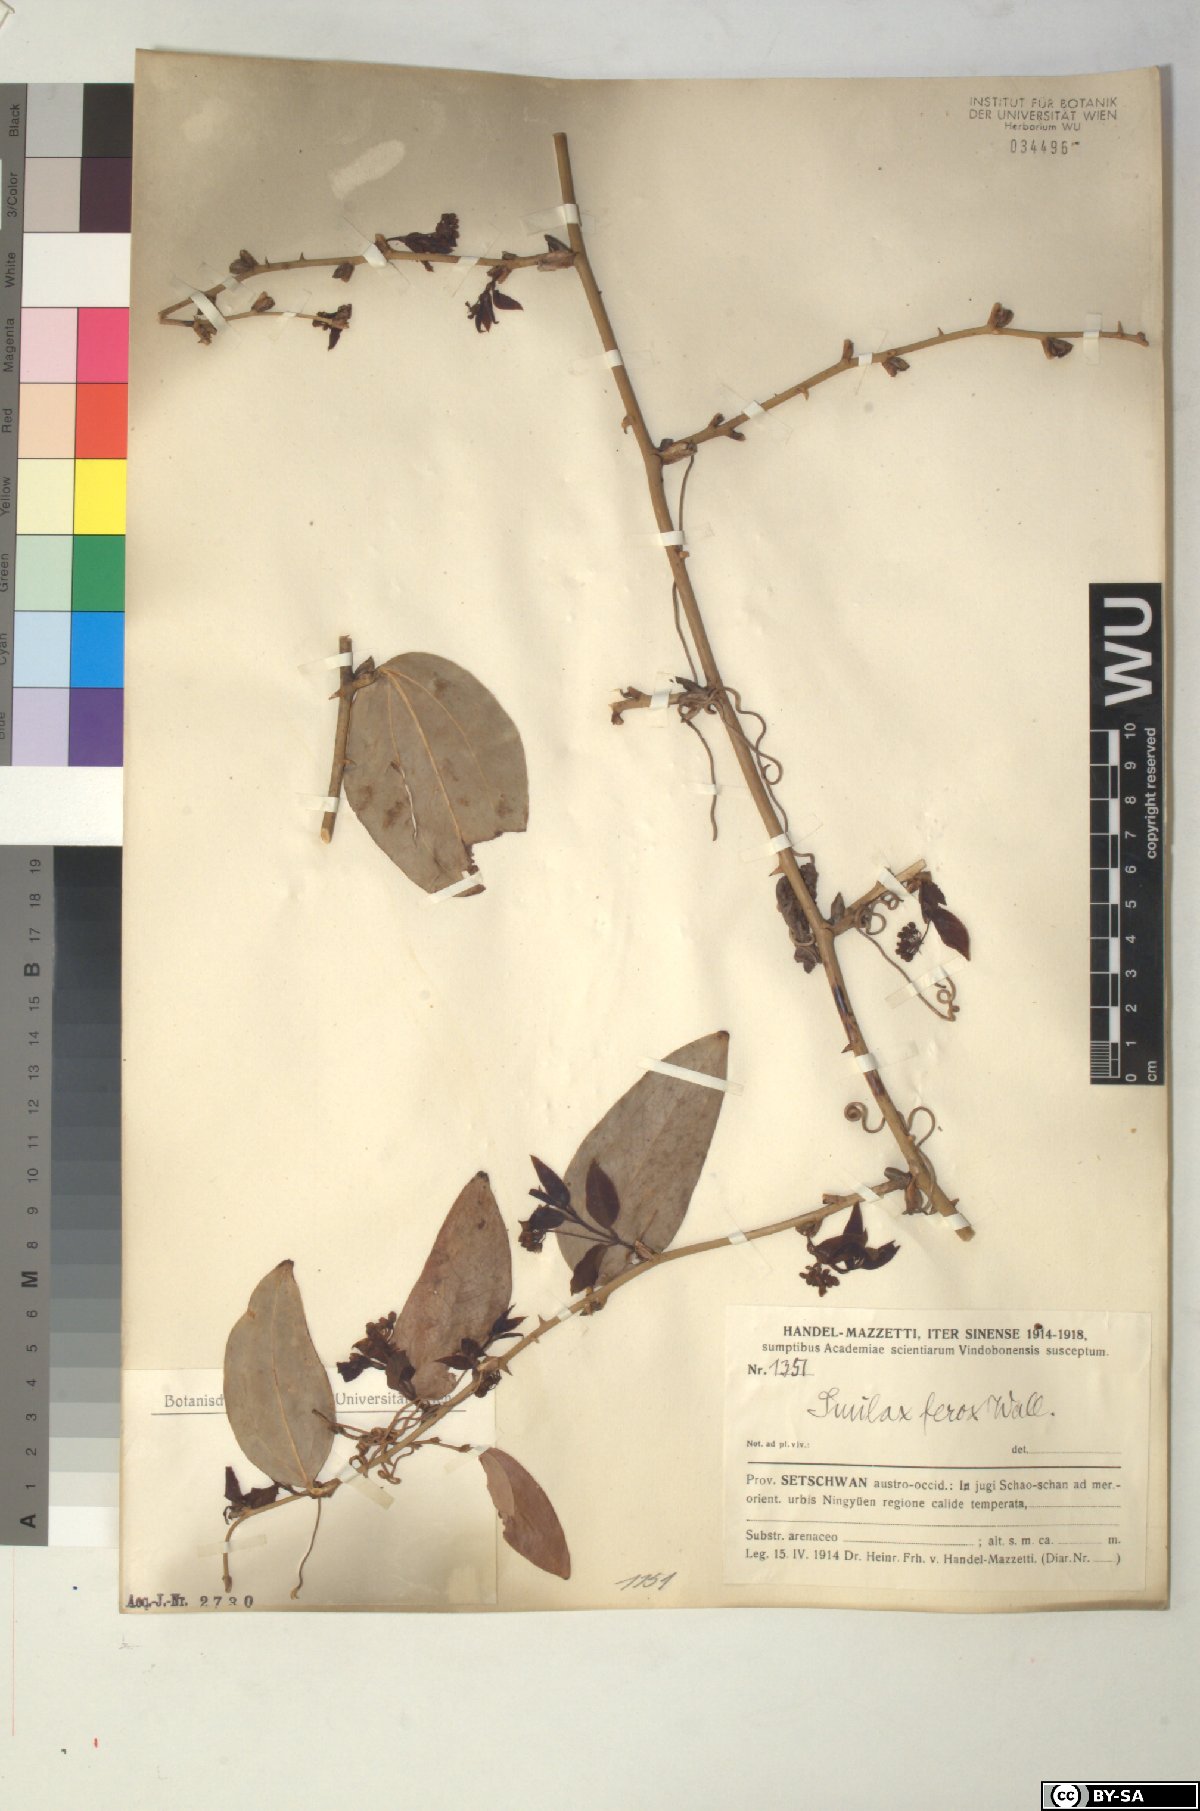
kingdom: Plantae
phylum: Tracheophyta
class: Liliopsida
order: Liliales
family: Smilacaceae
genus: Smilax
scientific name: Smilax ferox
